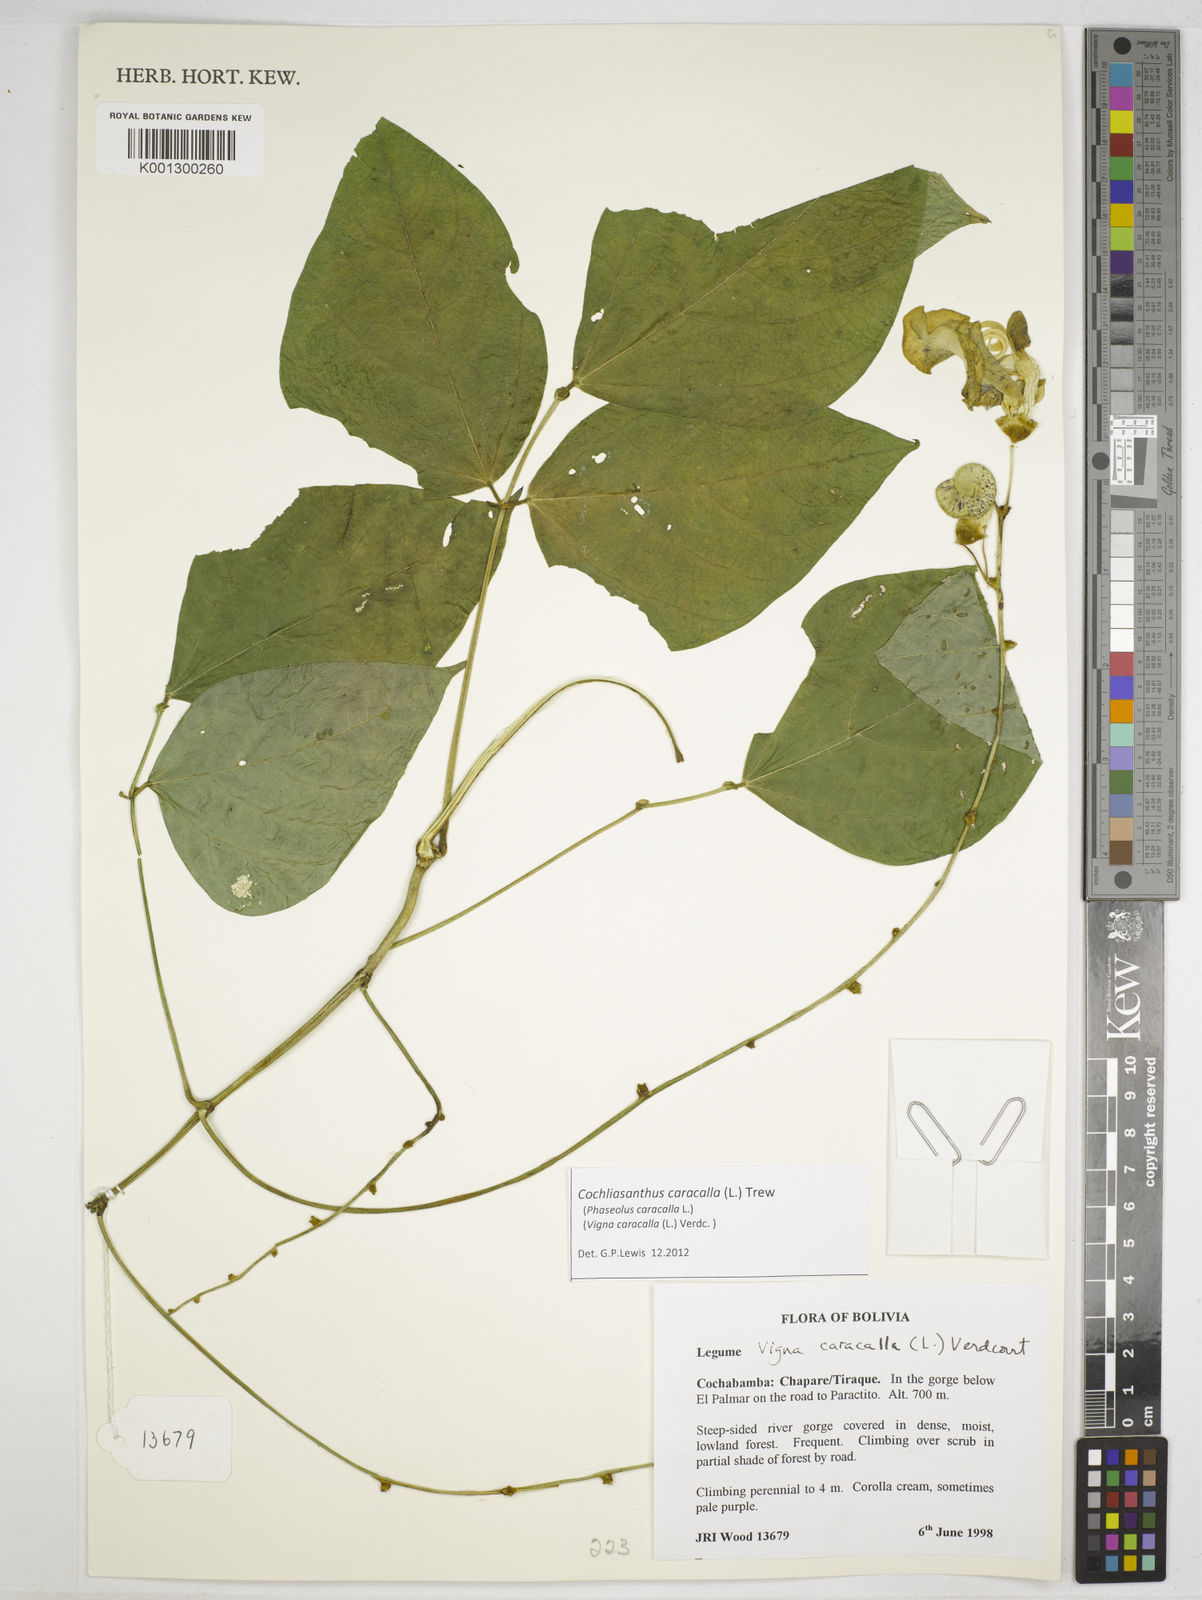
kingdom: Plantae
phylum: Tracheophyta
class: Magnoliopsida
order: Fabales
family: Fabaceae
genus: Cochliasanthus
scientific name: Cochliasanthus caracalla
